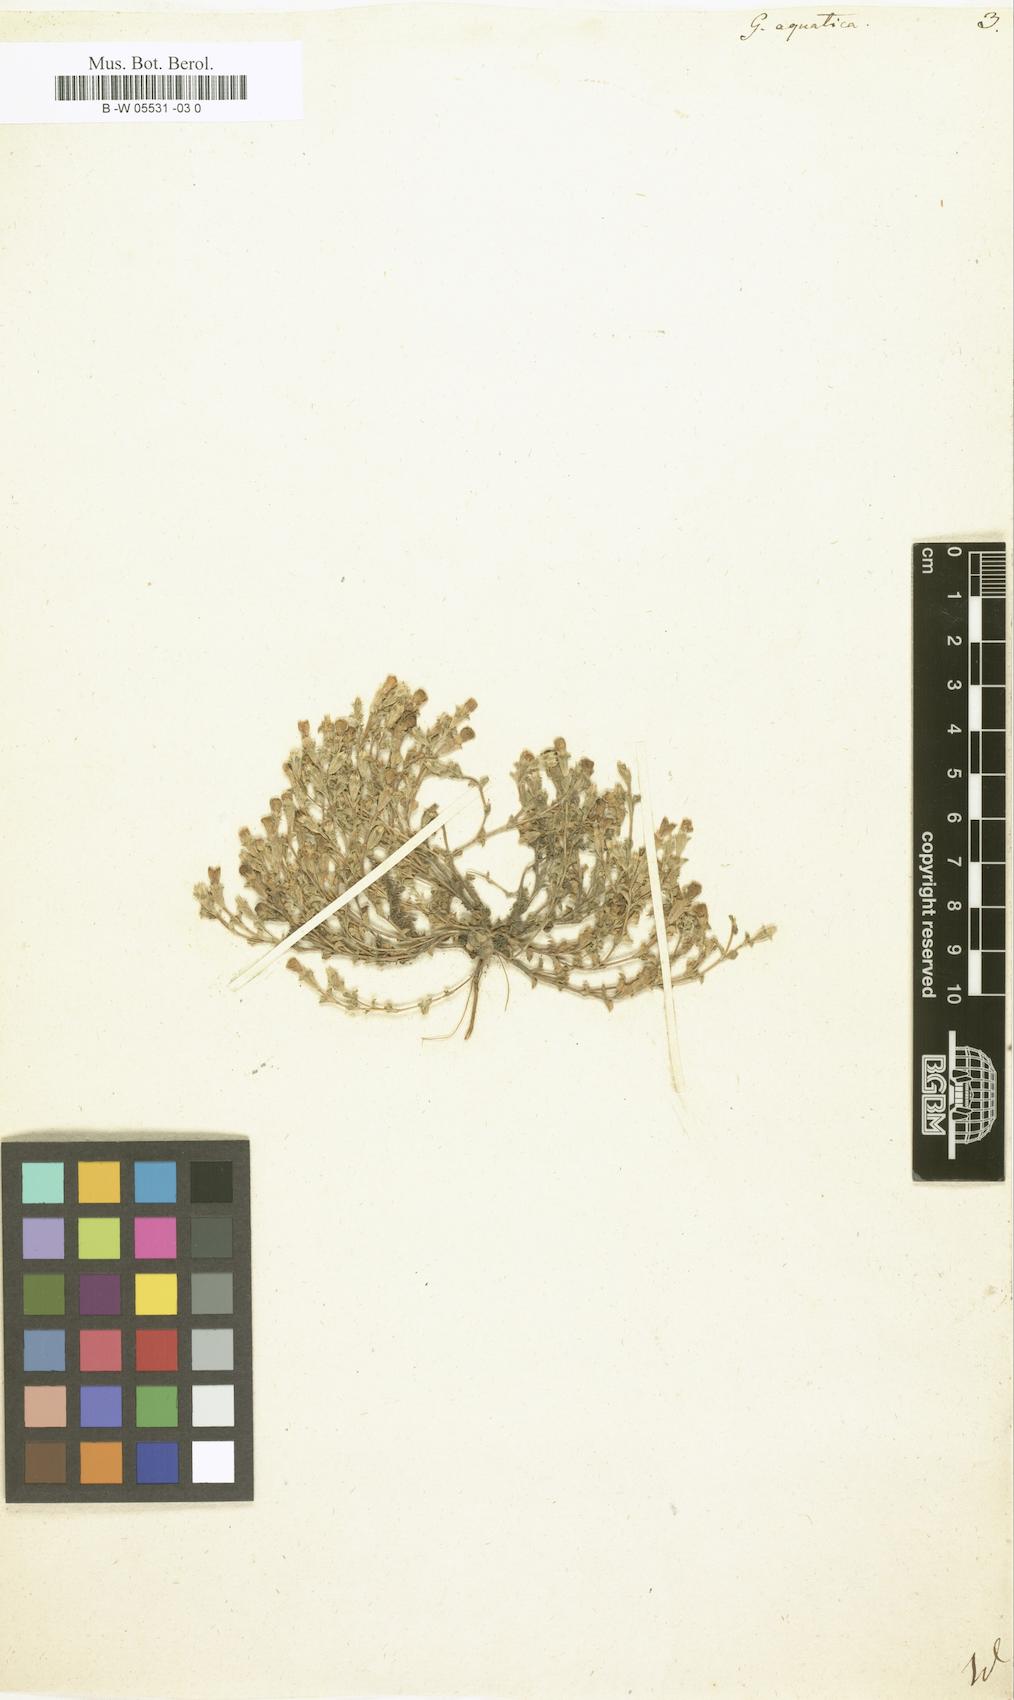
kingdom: Plantae
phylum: Tracheophyta
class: Magnoliopsida
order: Gentianales
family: Gentianaceae
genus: Gentiana
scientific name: Gentiana aquatica
